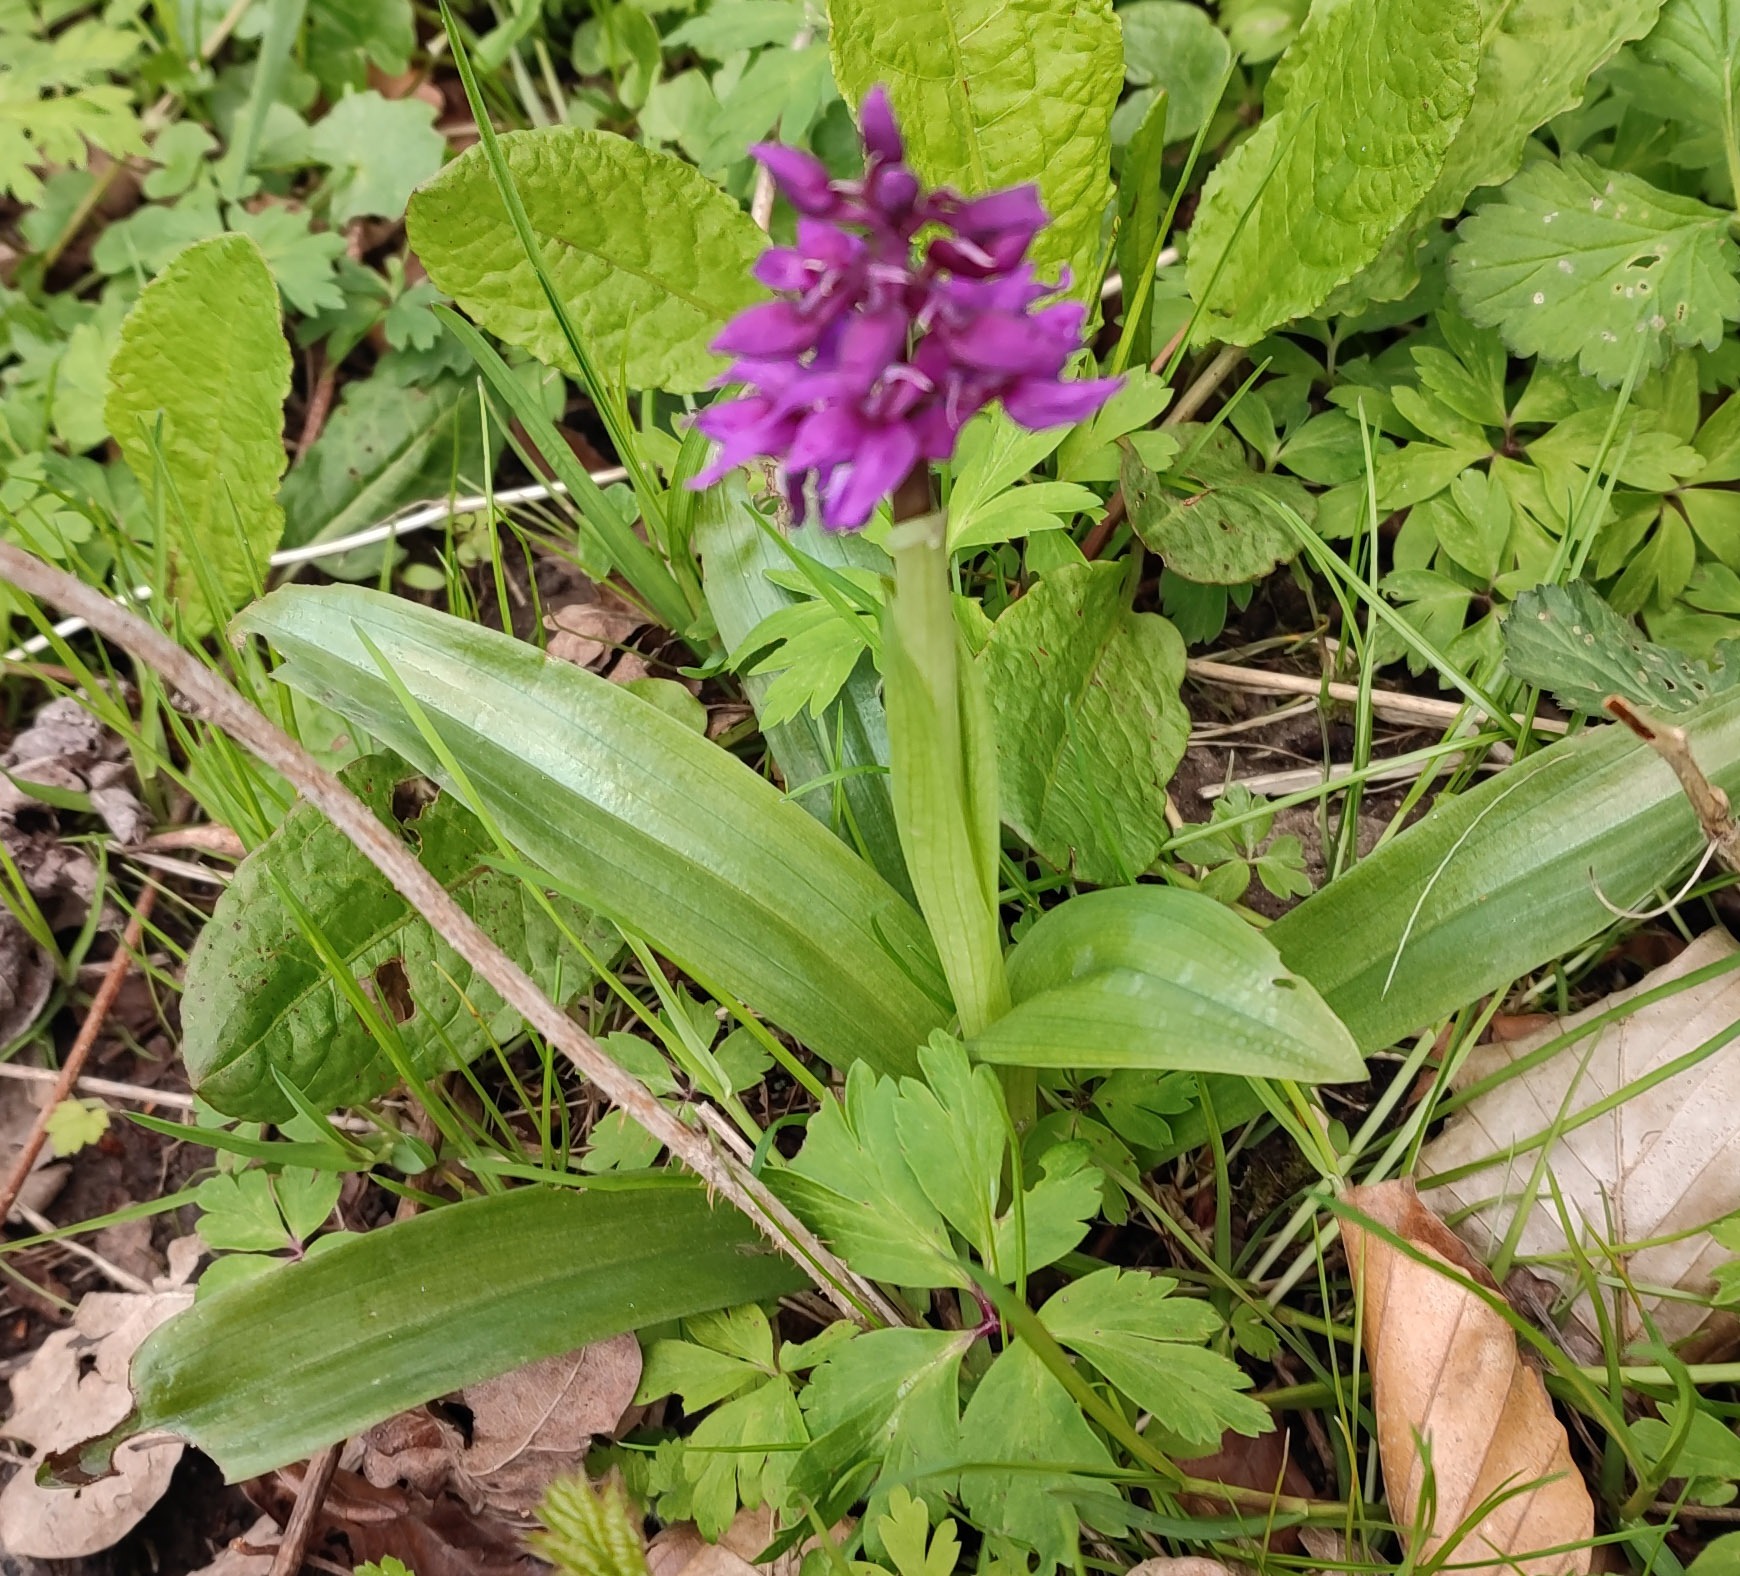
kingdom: Plantae
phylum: Tracheophyta
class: Liliopsida
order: Asparagales
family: Orchidaceae
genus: Orchis
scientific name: Orchis mascula
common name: Tyndakset gøgeurt
